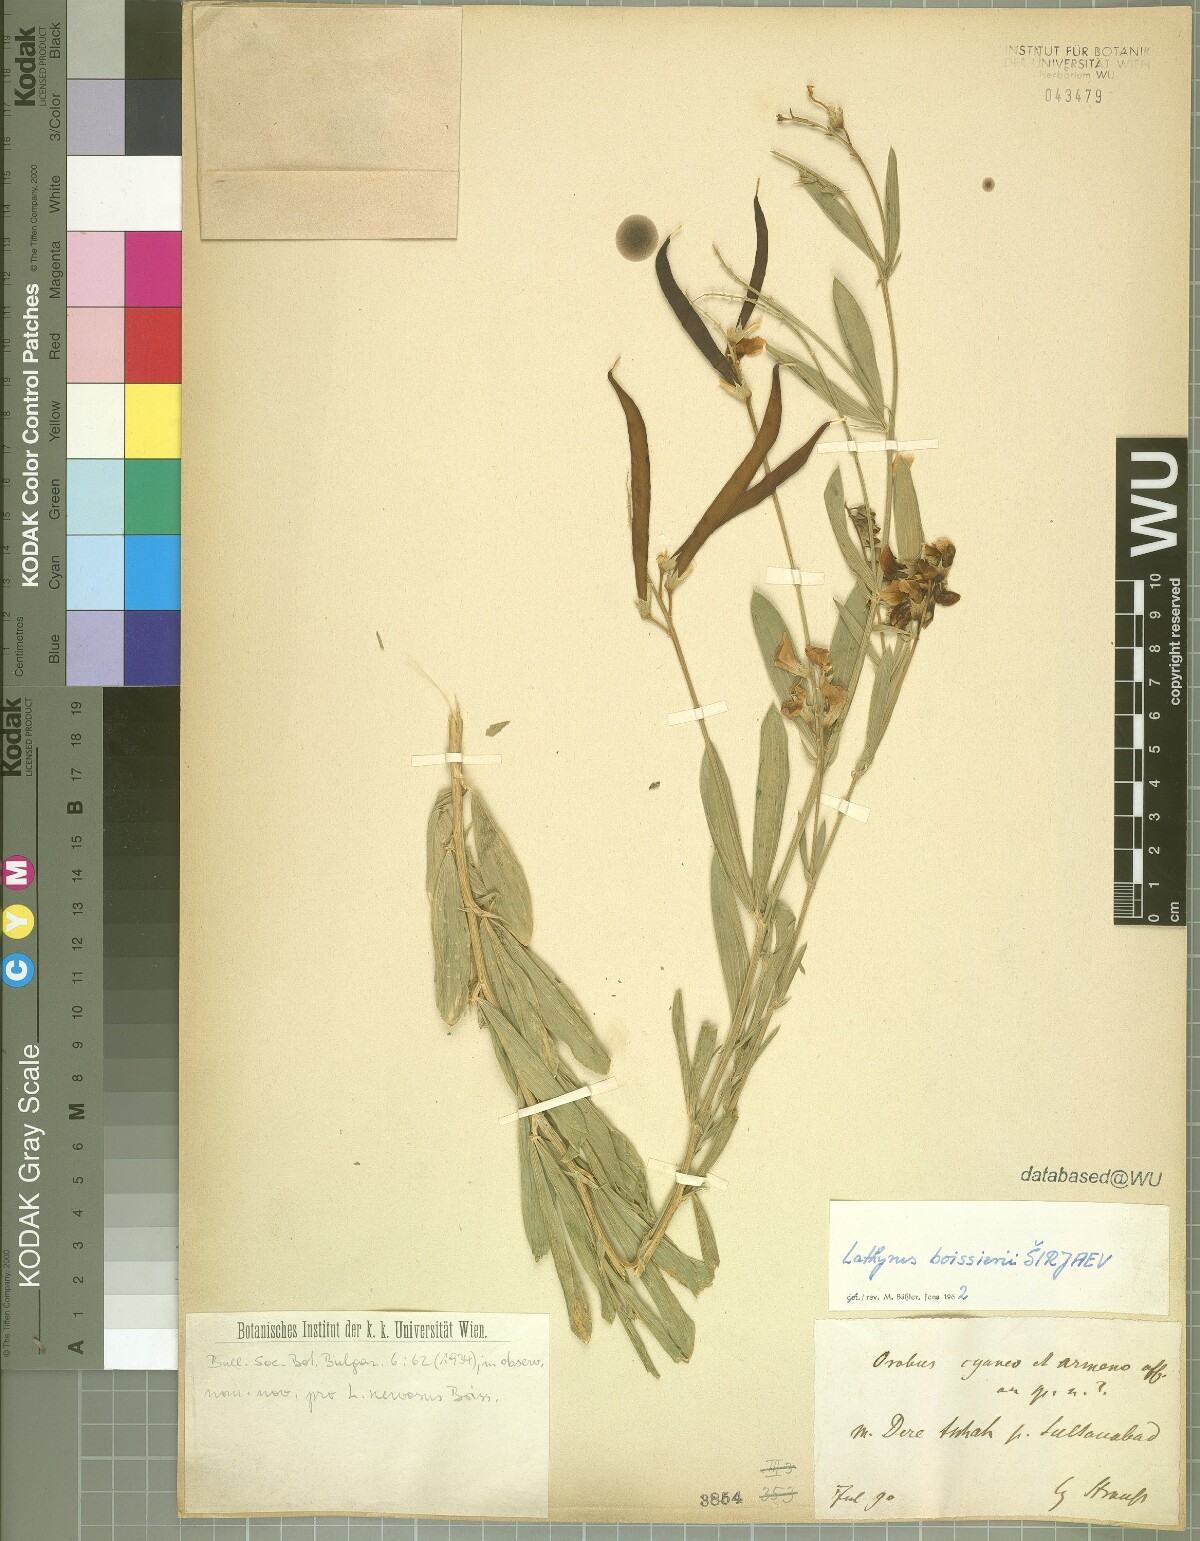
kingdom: Plantae
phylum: Tracheophyta
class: Magnoliopsida
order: Fabales
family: Fabaceae
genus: Lathyrus
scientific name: Lathyrus boissieri
